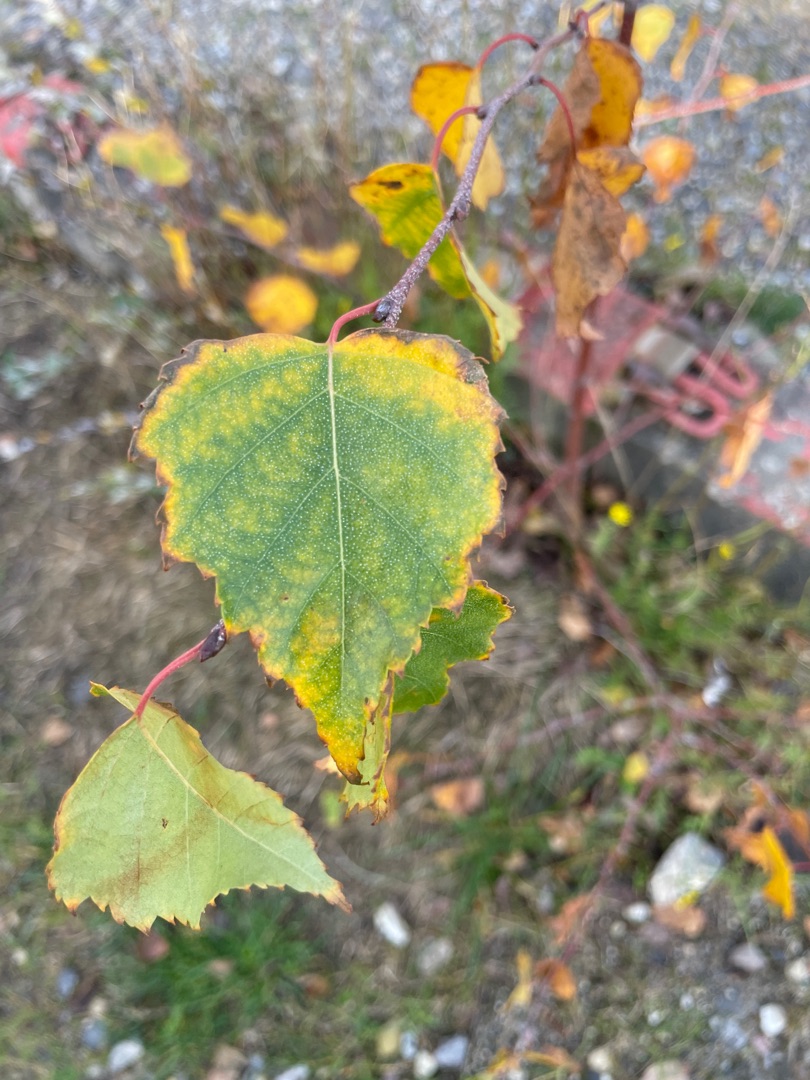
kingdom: Plantae
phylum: Tracheophyta
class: Magnoliopsida
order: Fagales
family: Betulaceae
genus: Betula
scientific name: Betula pendula
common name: Vorte-birk
